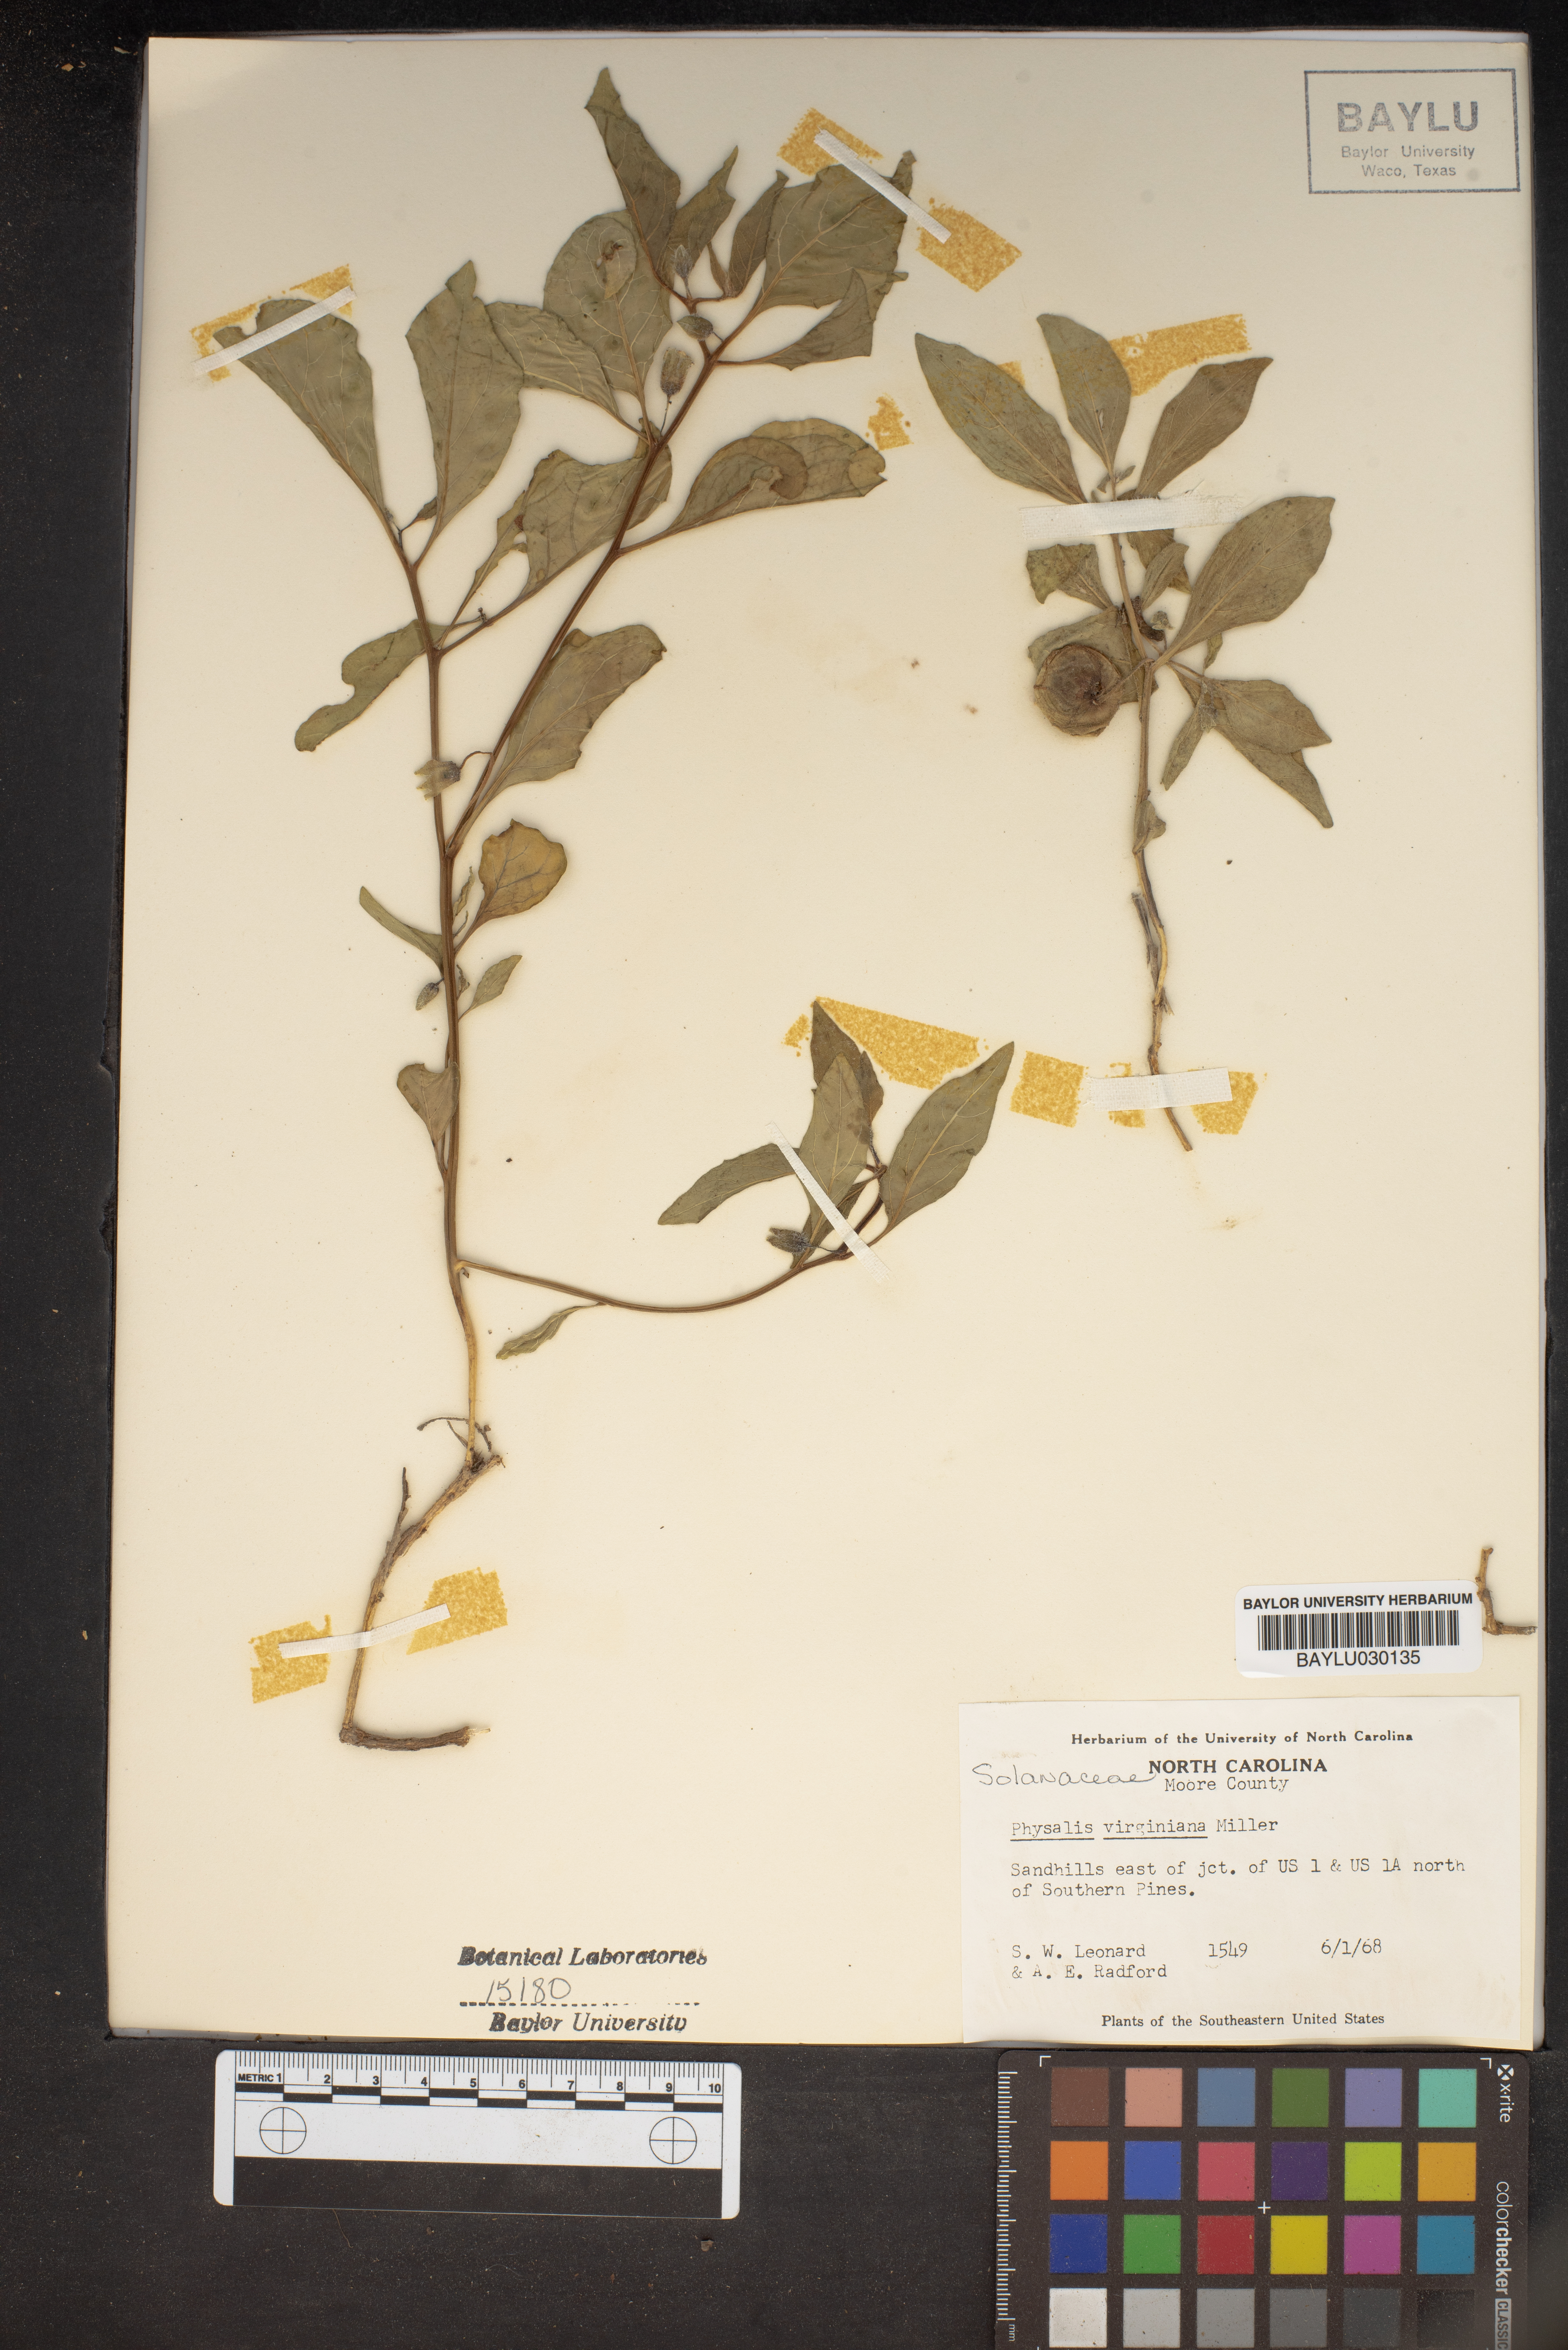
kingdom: Plantae
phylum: Tracheophyta
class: Magnoliopsida
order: Solanales
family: Solanaceae
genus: Physalis
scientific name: Physalis virginiana
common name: Virginia ground-cherry
